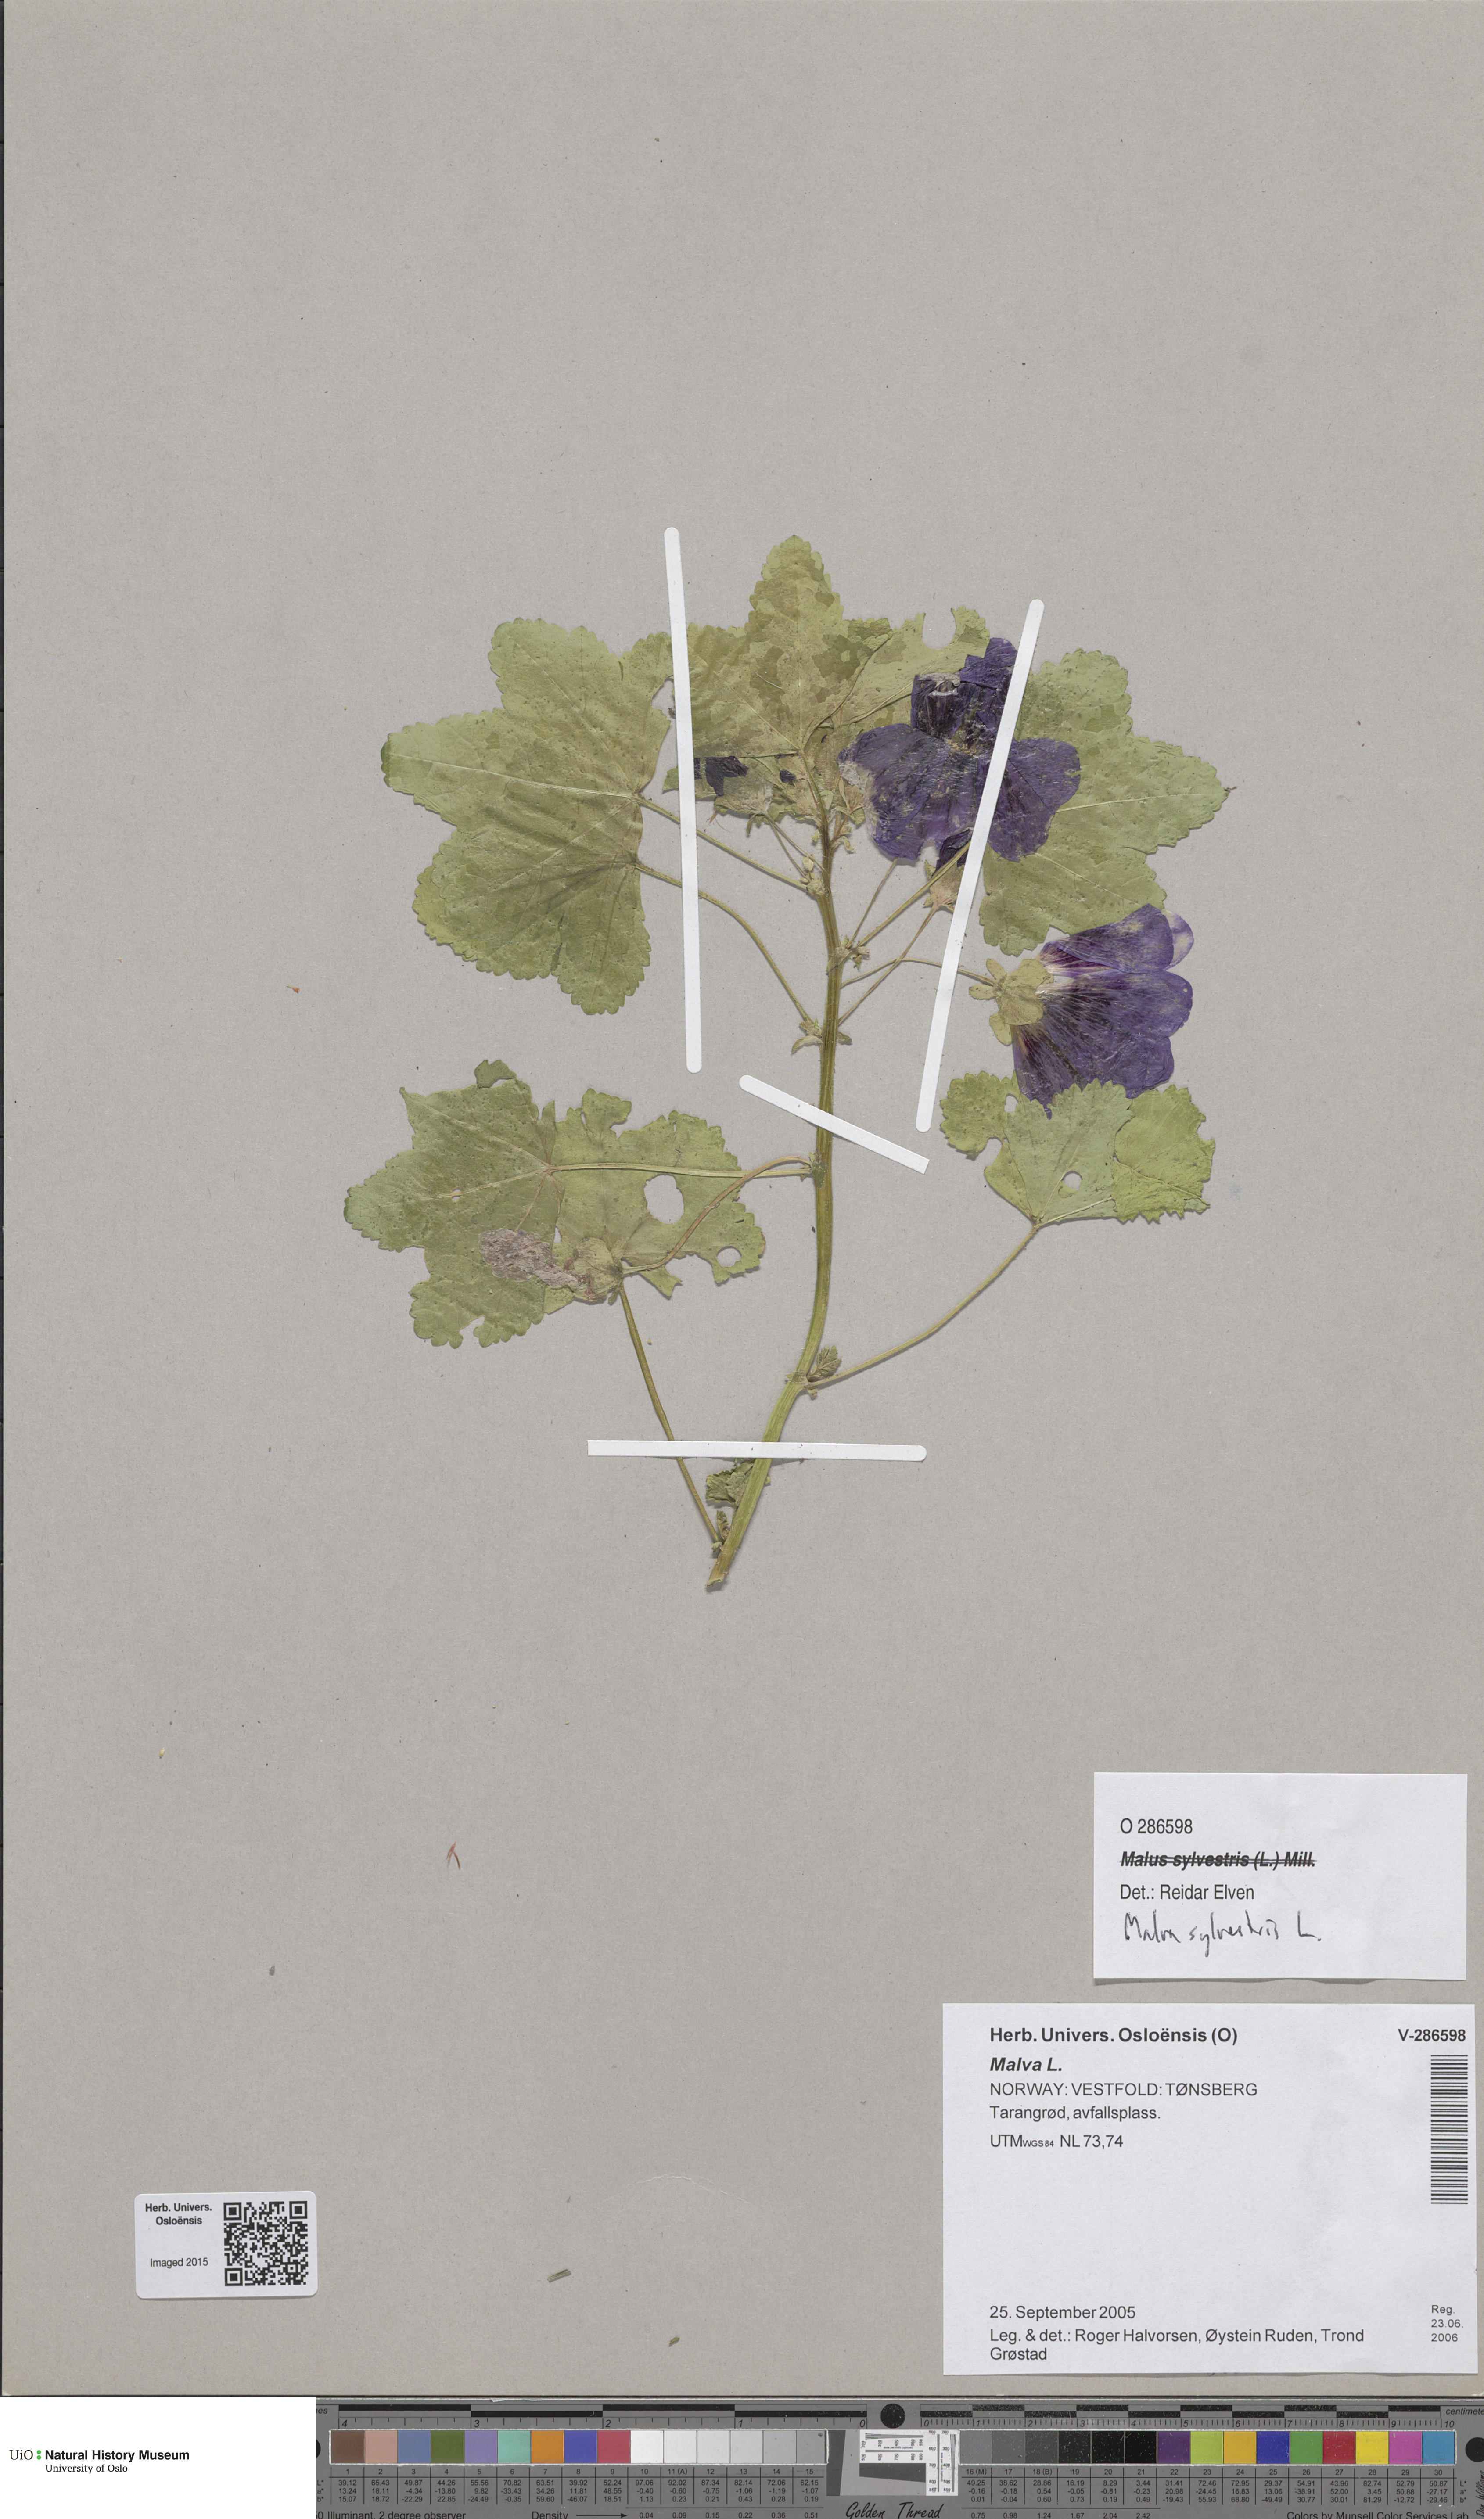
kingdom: Plantae
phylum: Tracheophyta
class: Magnoliopsida
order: Malvales
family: Malvaceae
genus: Malva
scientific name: Malva sylvestris
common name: Common mallow
